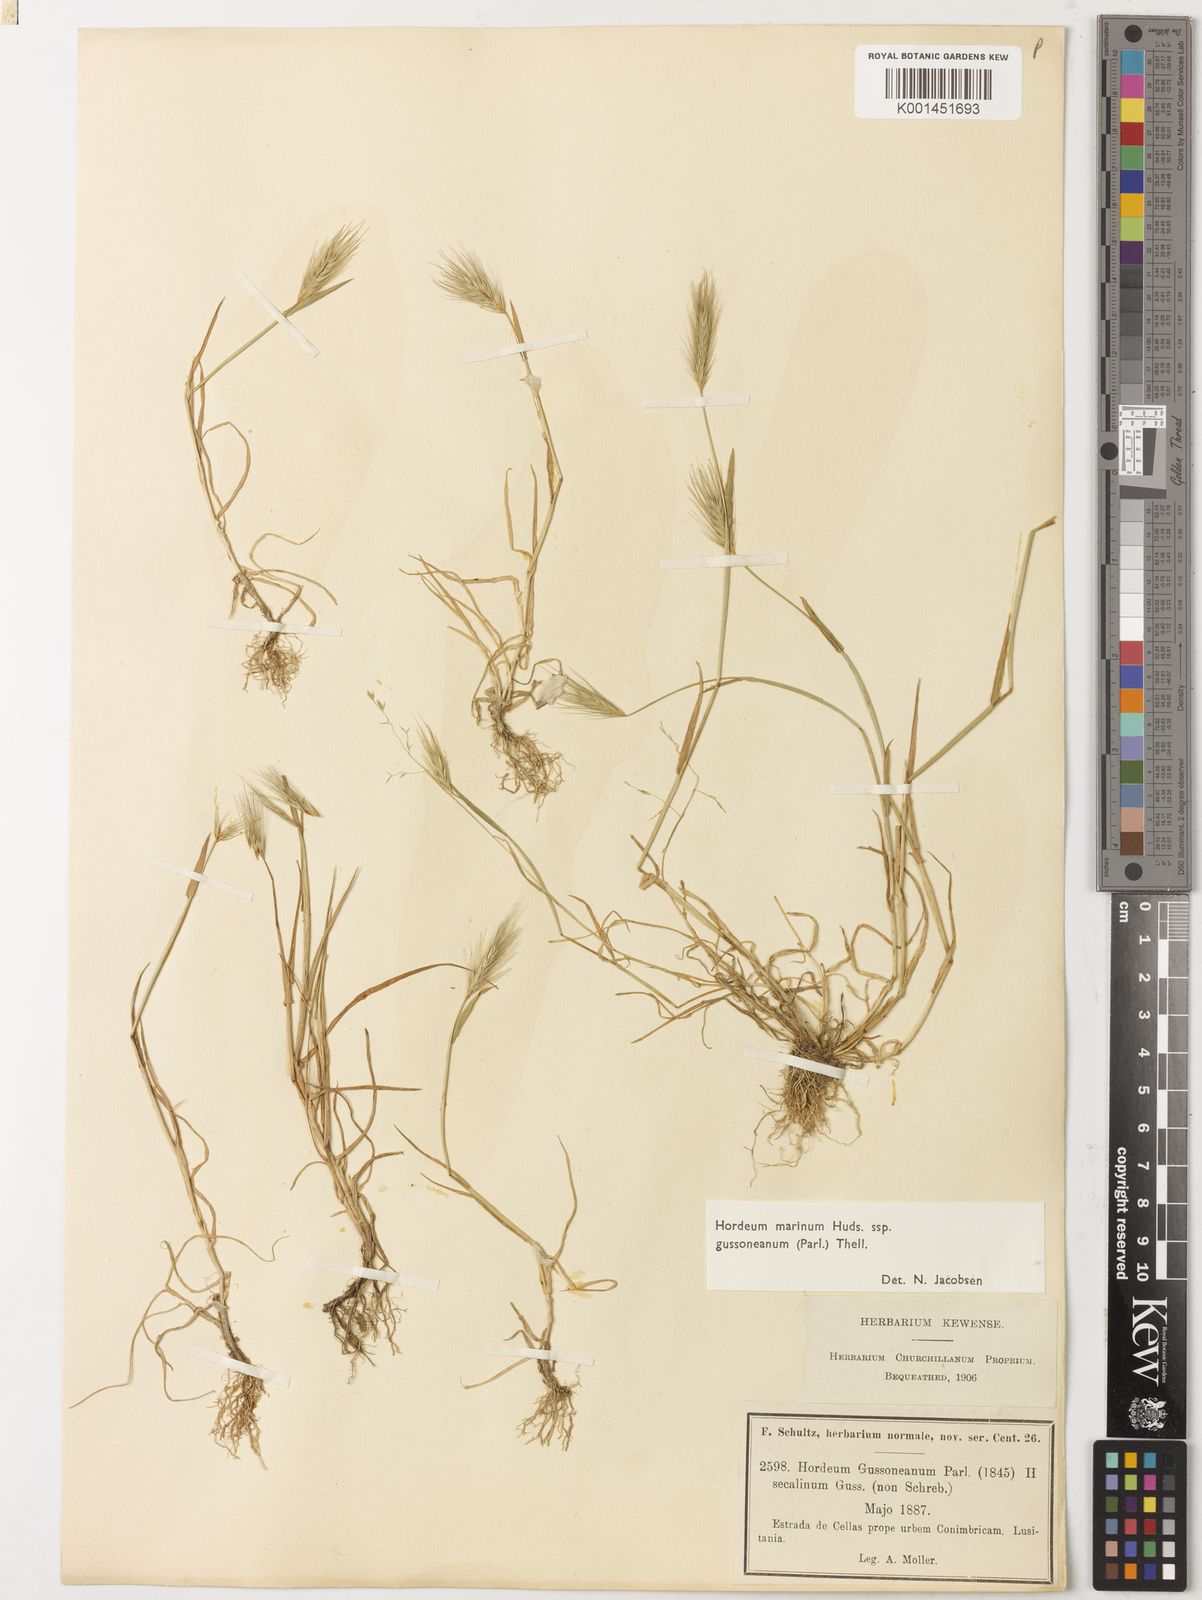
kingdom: Plantae
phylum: Tracheophyta
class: Liliopsida
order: Poales
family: Poaceae
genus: Hordeum
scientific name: Hordeum marinum
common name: Sea barley
